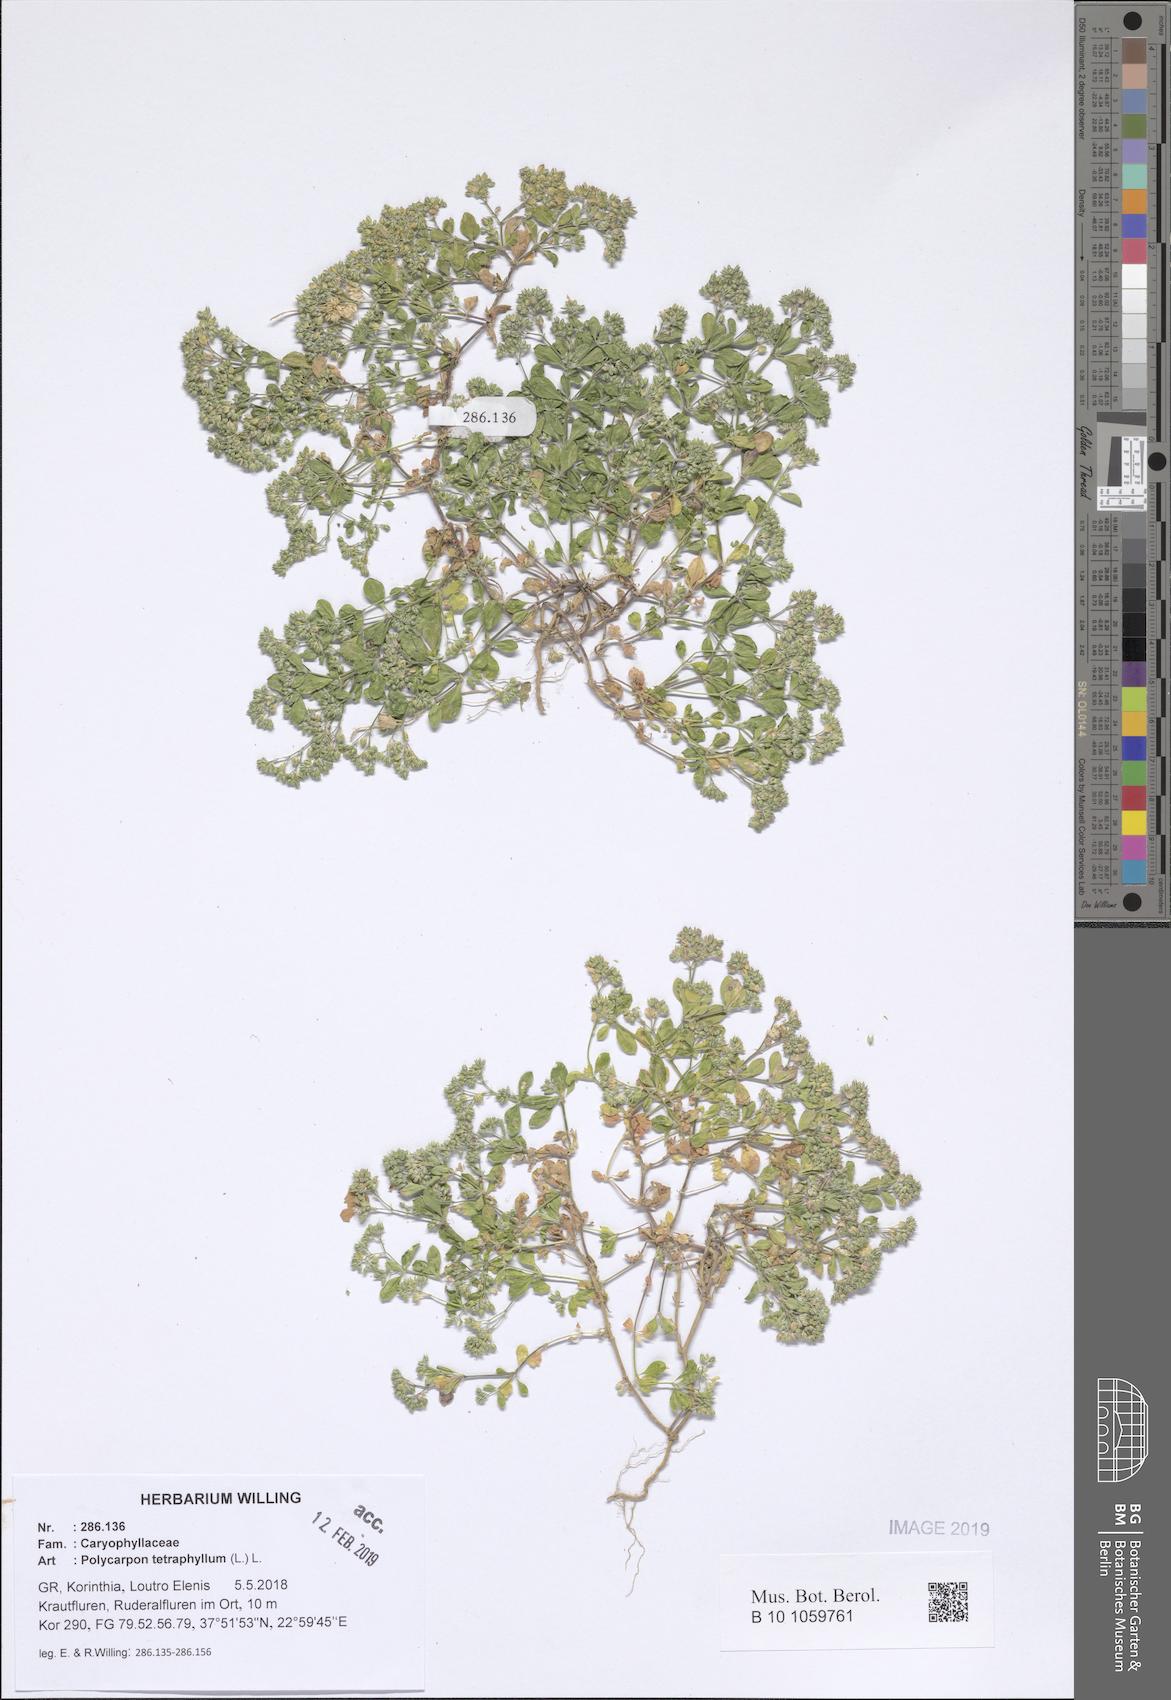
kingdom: Plantae
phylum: Tracheophyta
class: Magnoliopsida
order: Caryophyllales
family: Caryophyllaceae
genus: Polycarpon
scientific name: Polycarpon tetraphyllum
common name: Four-leaved all-seed
